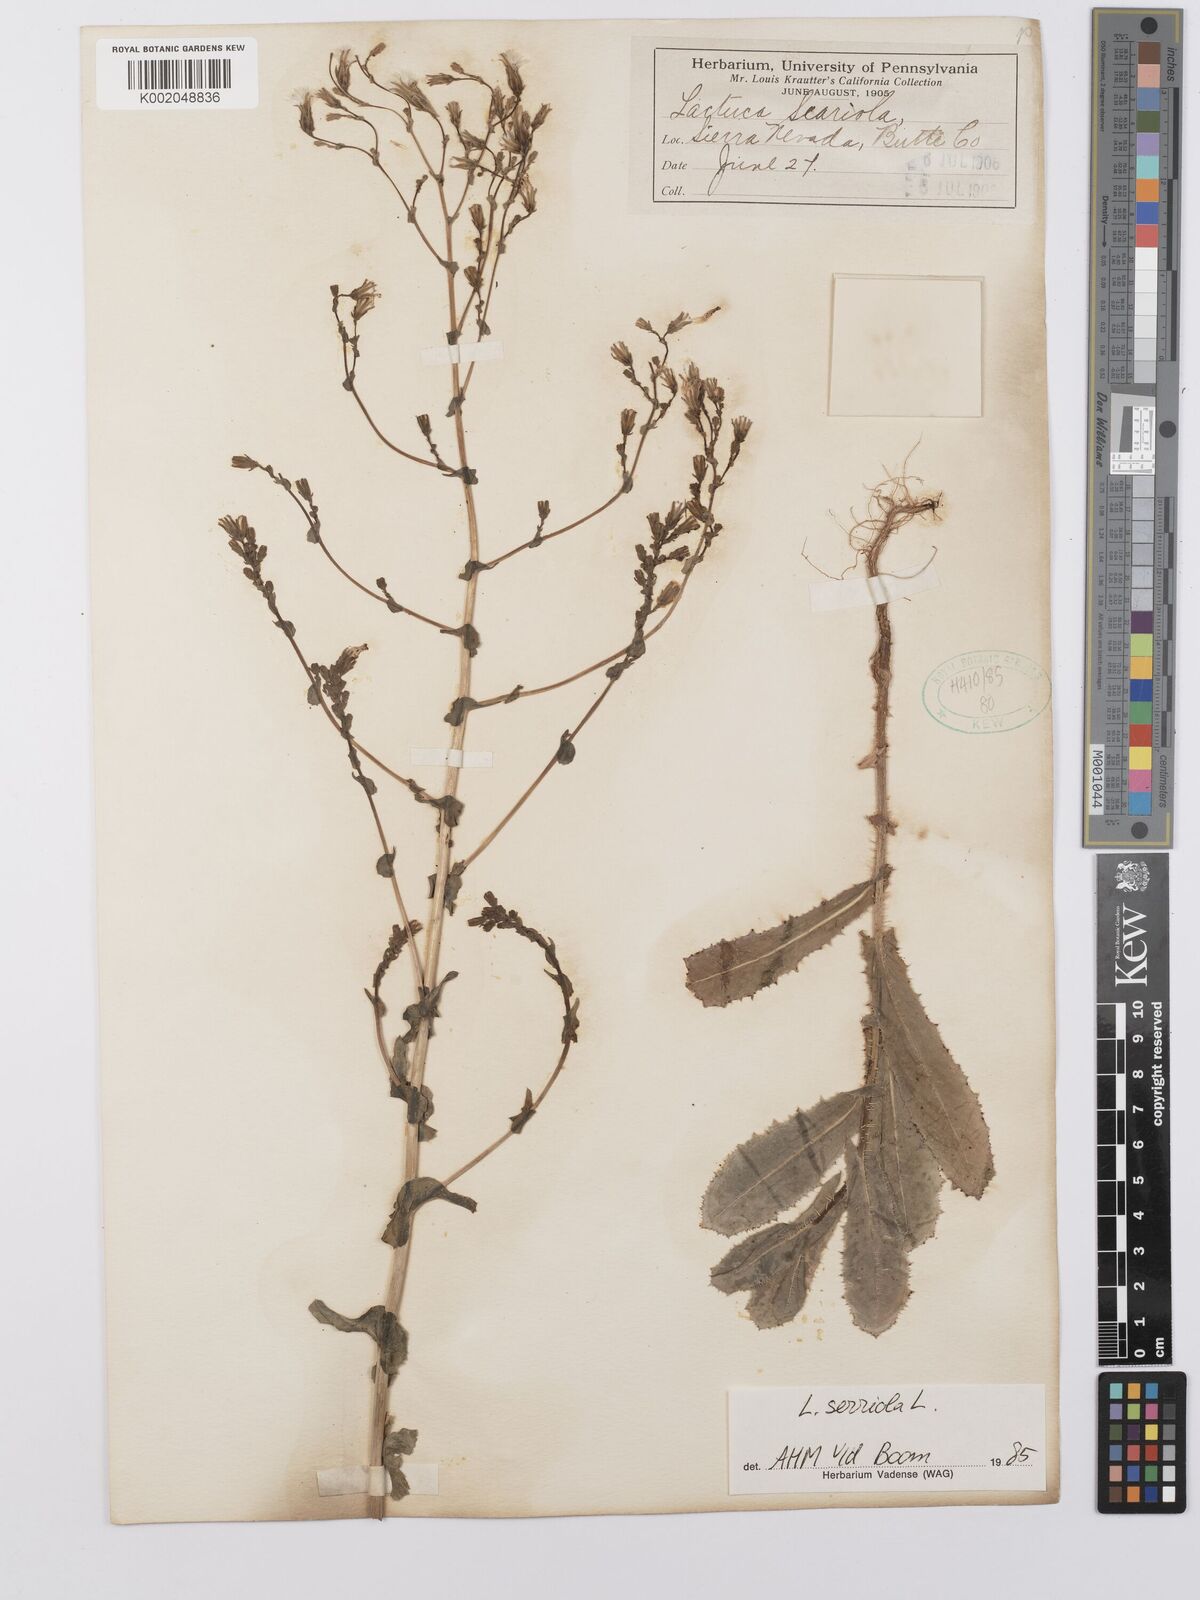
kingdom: Plantae
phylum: Tracheophyta
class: Magnoliopsida
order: Asterales
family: Asteraceae
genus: Lactuca
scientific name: Lactuca serriola
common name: Prickly lettuce
